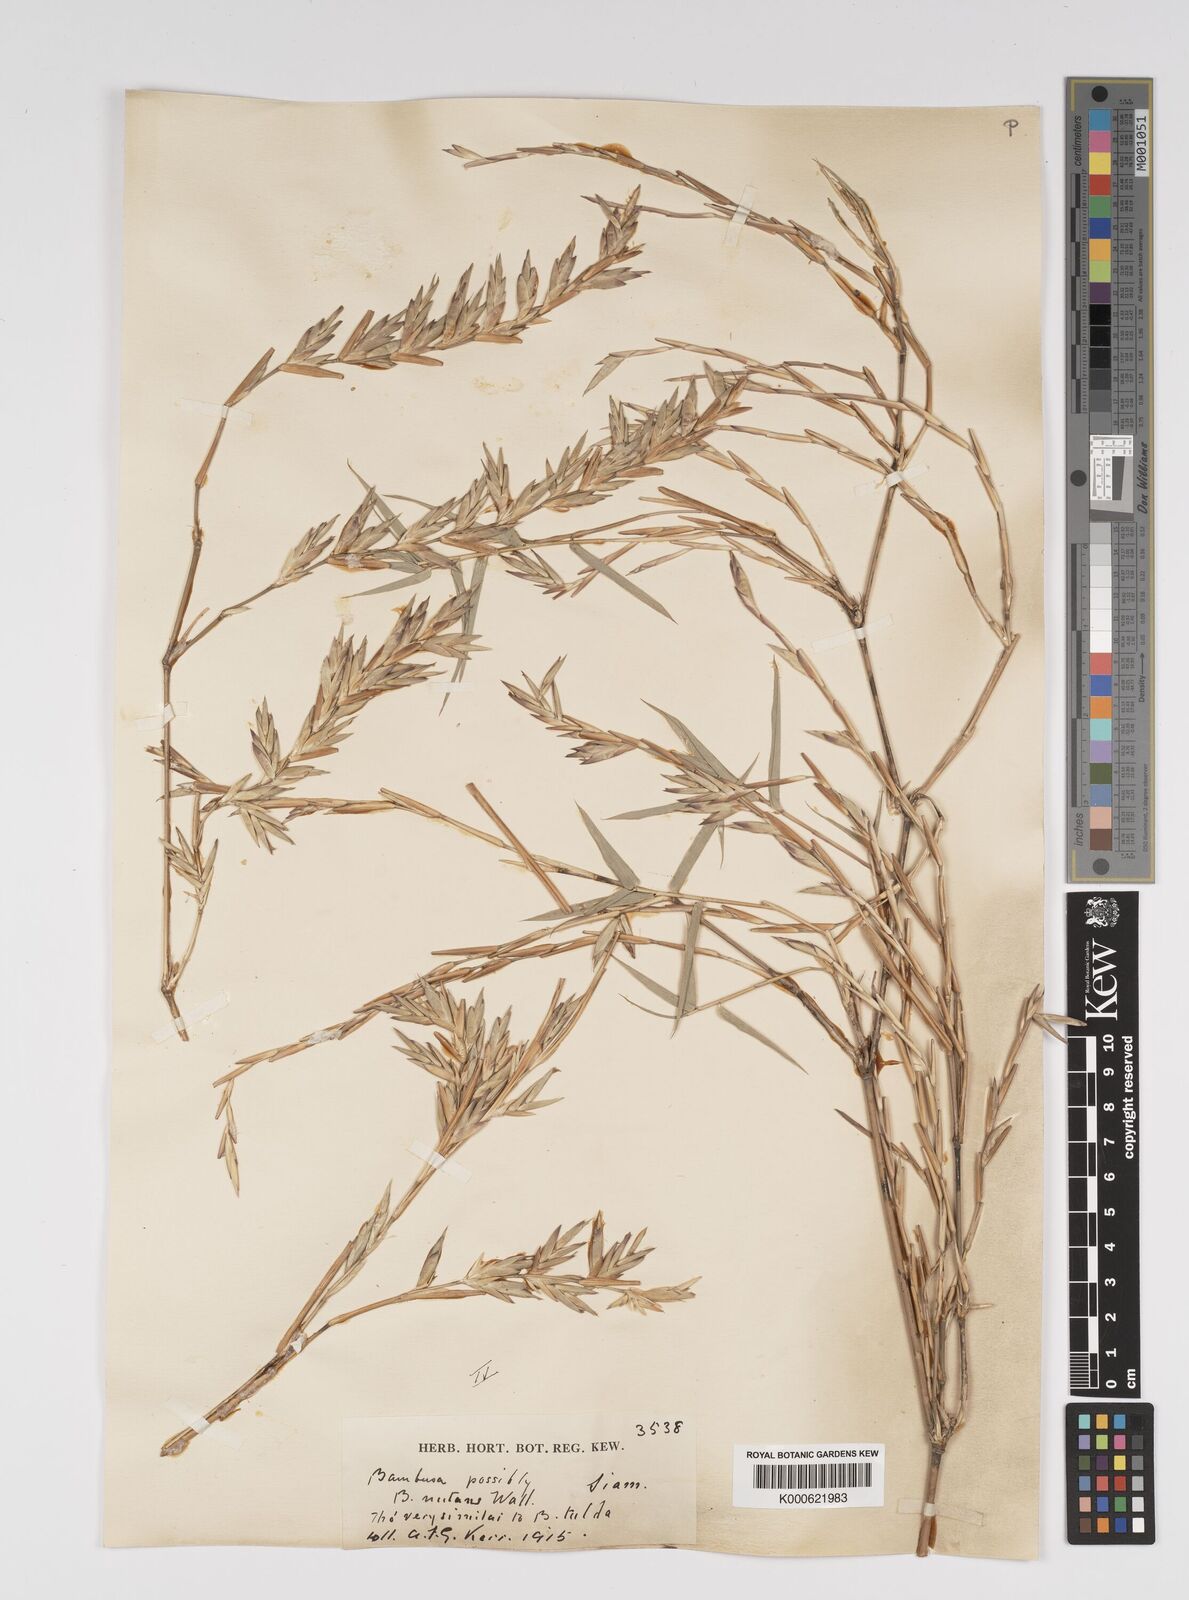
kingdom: Plantae
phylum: Tracheophyta
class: Liliopsida
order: Poales
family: Poaceae
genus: Bambusa
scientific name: Bambusa
